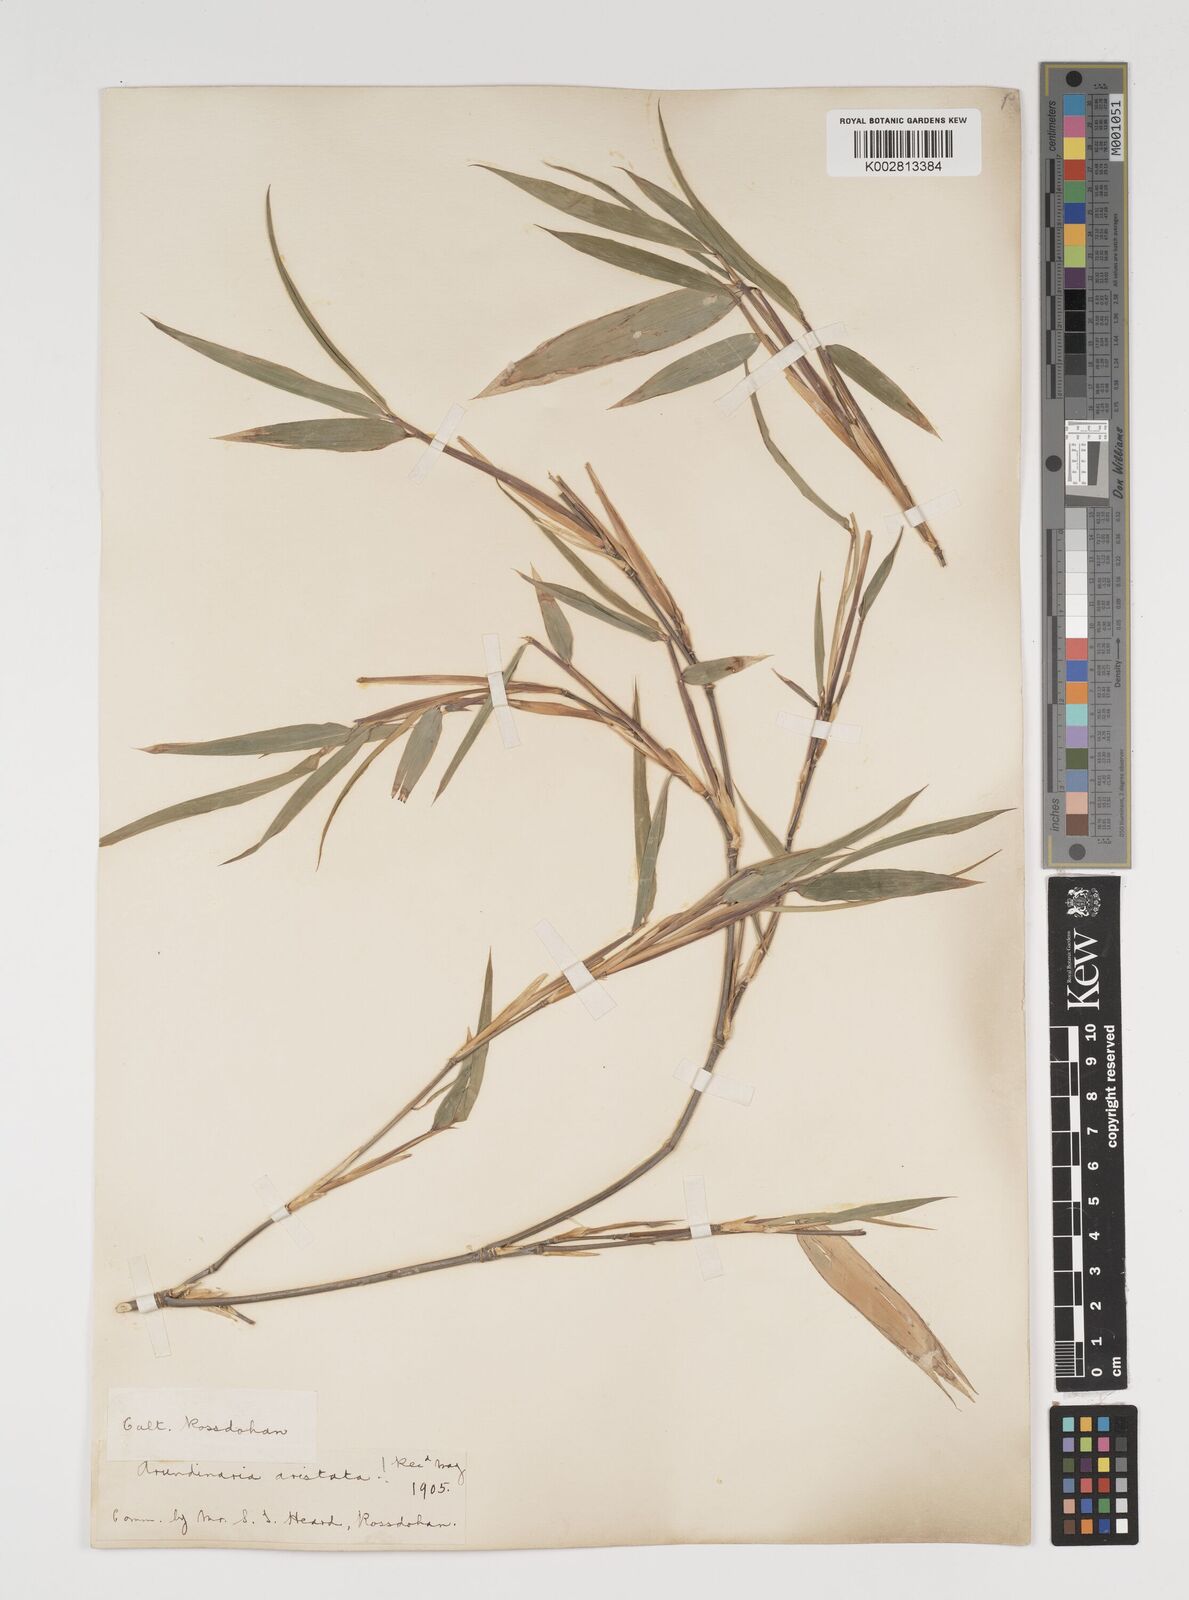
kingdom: Plantae
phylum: Tracheophyta
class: Liliopsida
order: Poales
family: Poaceae
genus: Thamnocalamus
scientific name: Thamnocalamus spathiflorus
